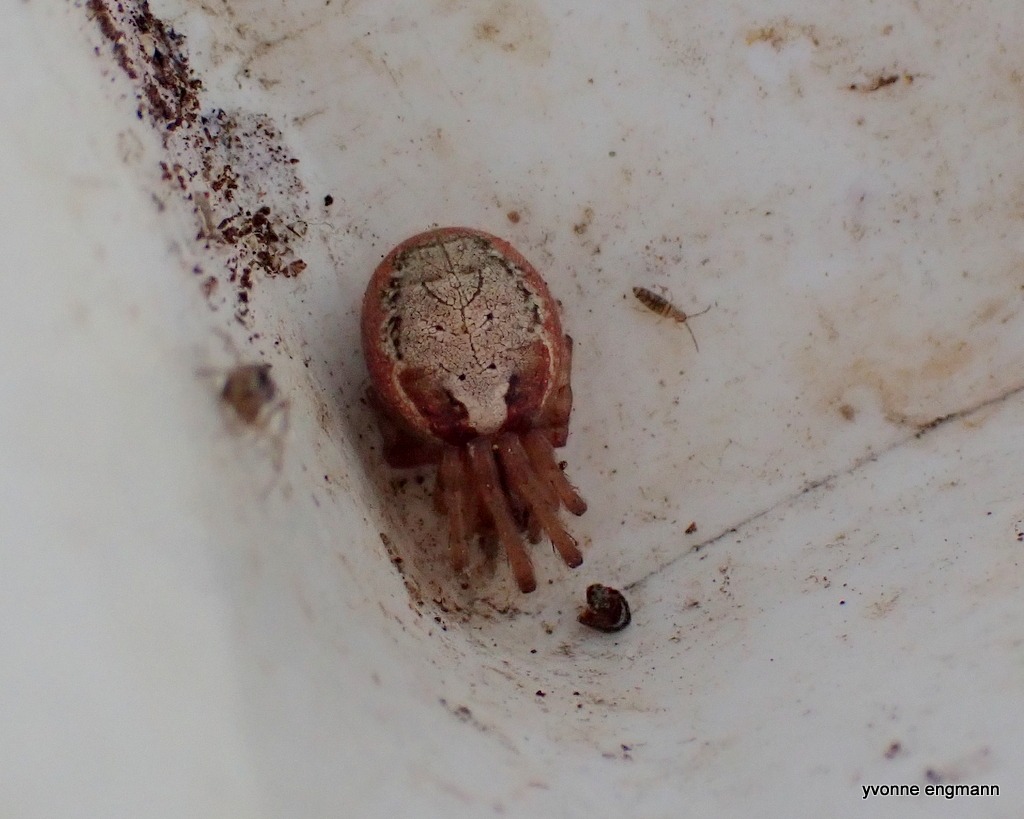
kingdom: Animalia
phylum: Arthropoda
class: Arachnida
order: Araneae
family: Araneidae
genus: Zygiella
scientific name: Zygiella atrica
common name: Sektoredderkop
